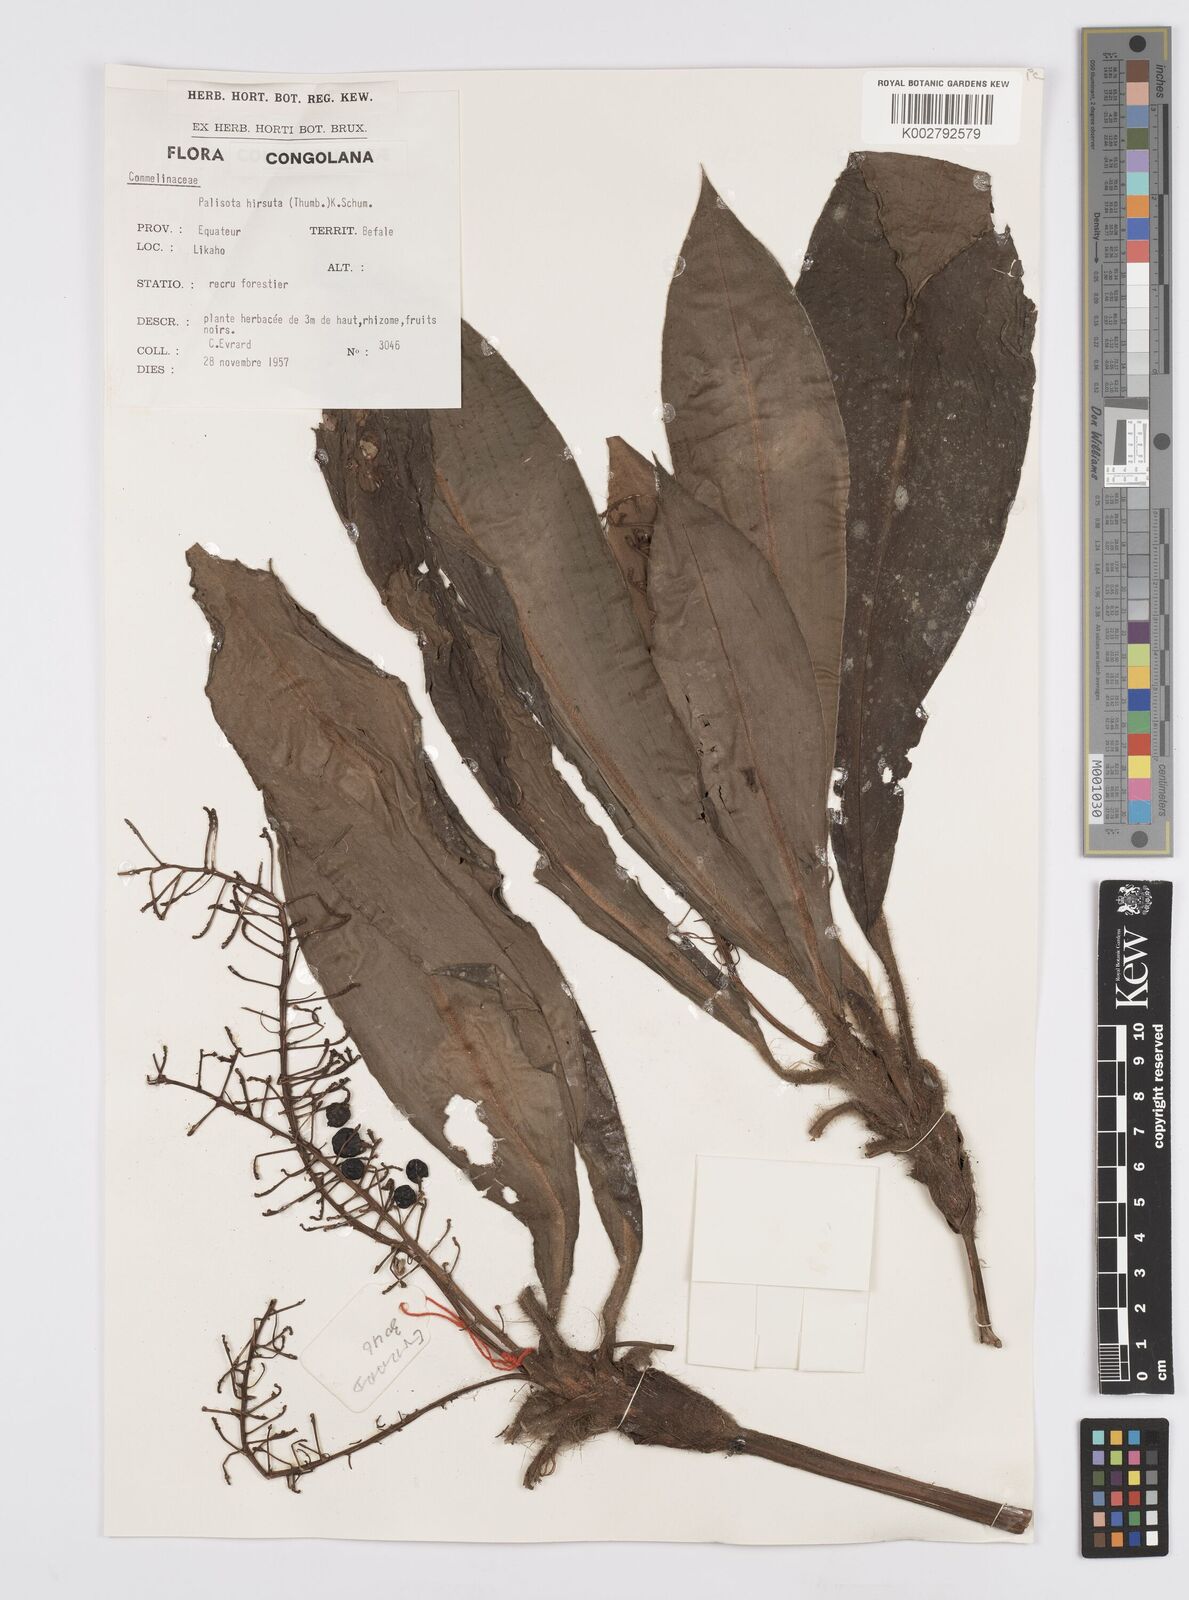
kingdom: Plantae
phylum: Tracheophyta
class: Liliopsida
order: Commelinales
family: Commelinaceae
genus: Palisota
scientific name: Palisota hirsuta
